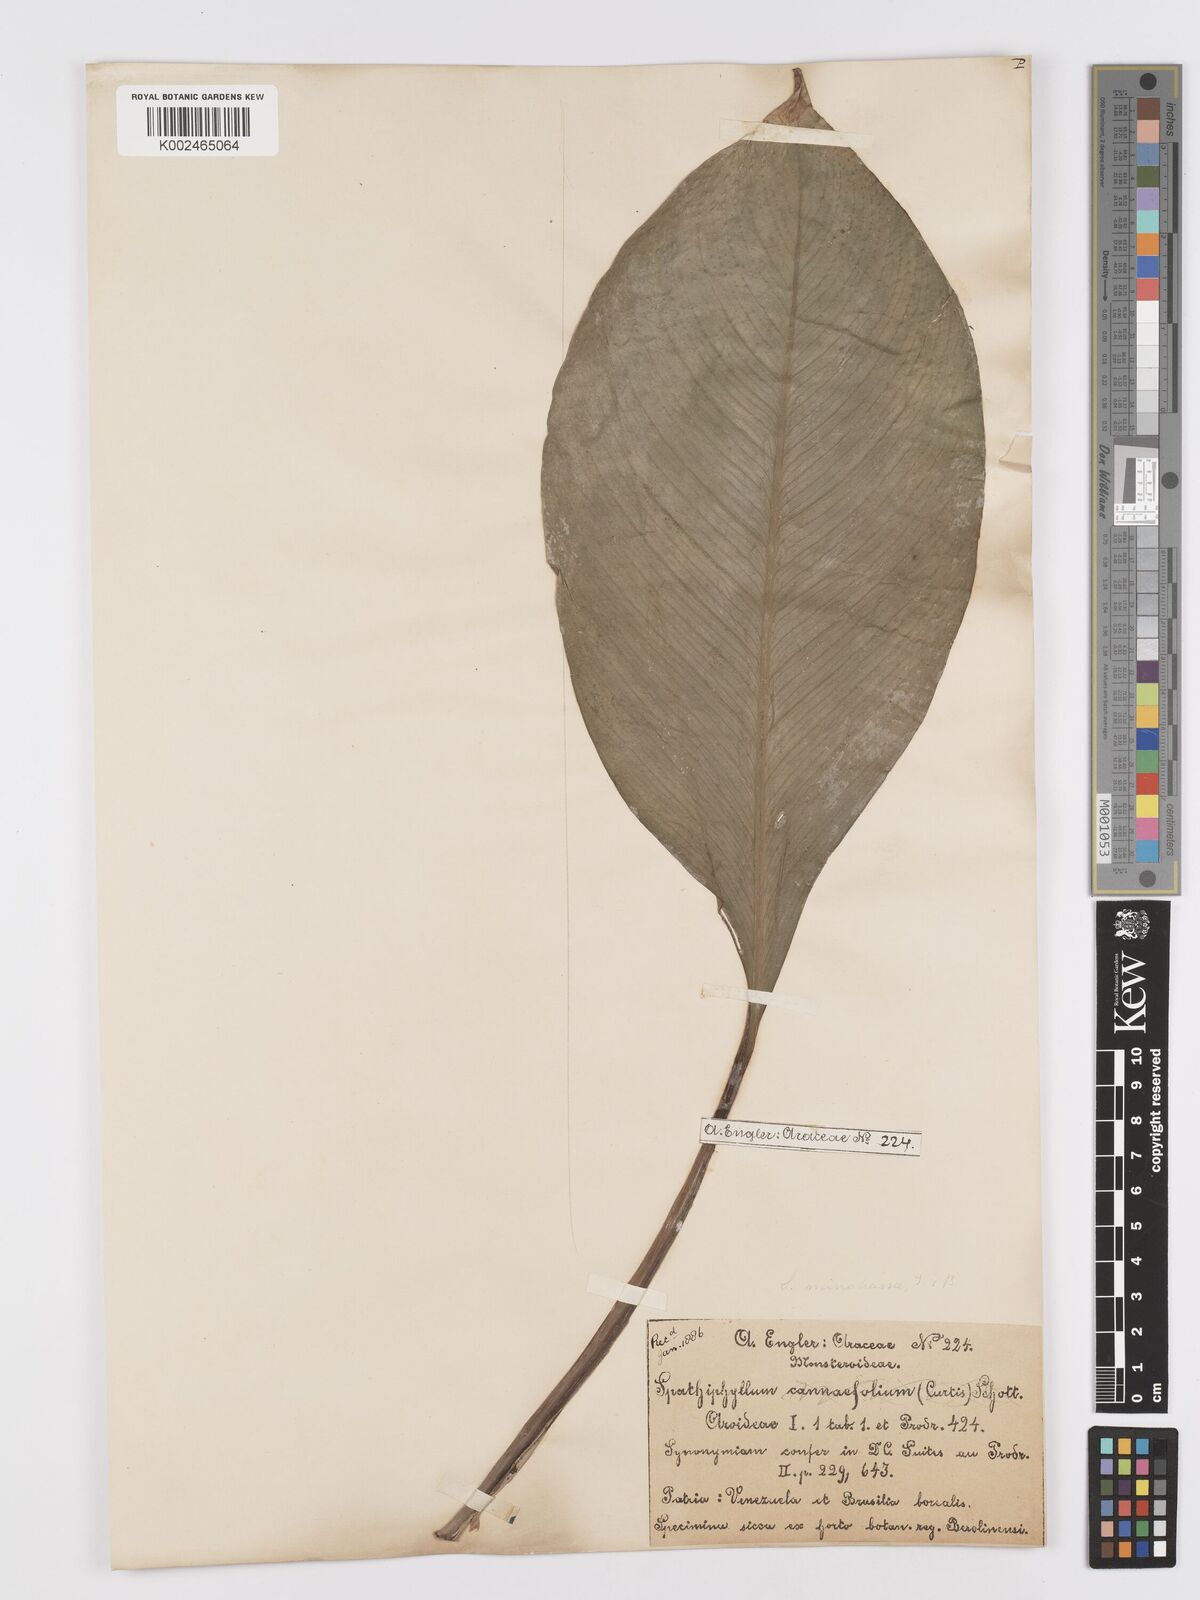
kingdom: Plantae
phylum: Tracheophyta
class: Liliopsida
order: Alismatales
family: Araceae
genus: Spathiphyllum
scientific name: Spathiphyllum commutatum
